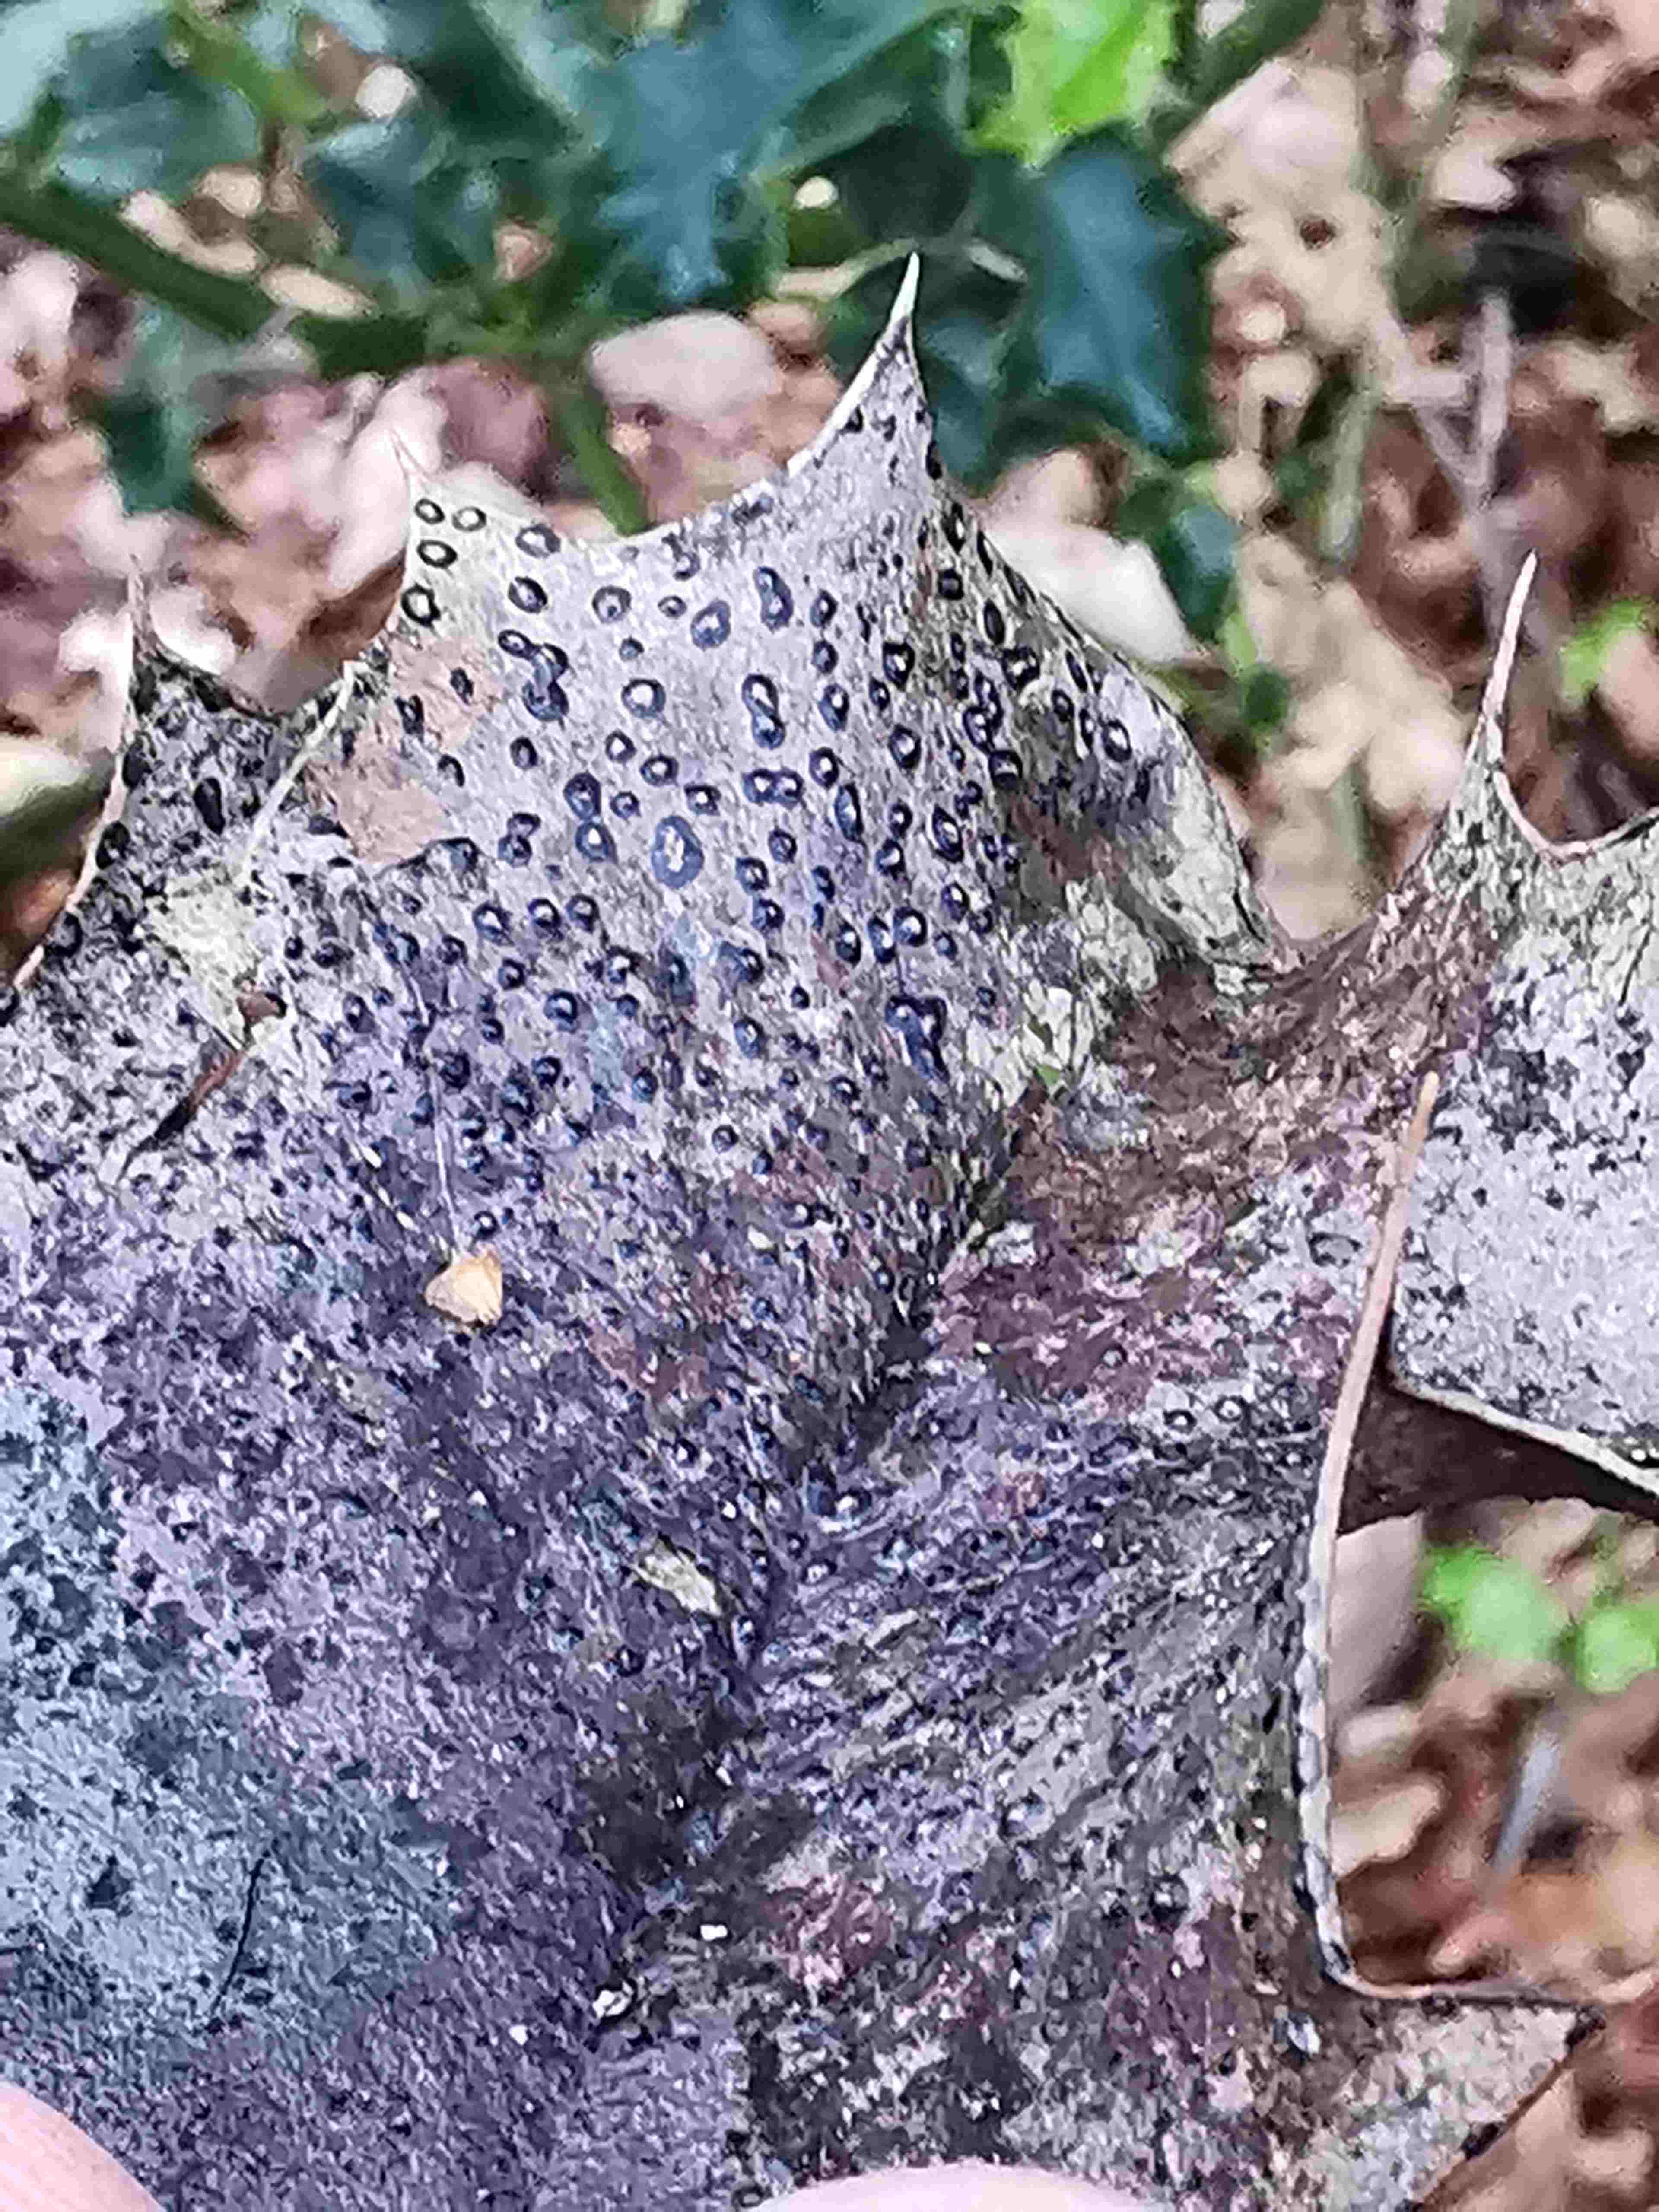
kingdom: Fungi
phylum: Ascomycota
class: Leotiomycetes
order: Phacidiales
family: Phacidiaceae
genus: Phacidium
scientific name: Phacidium lauri
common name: kristtorn-tandskive
